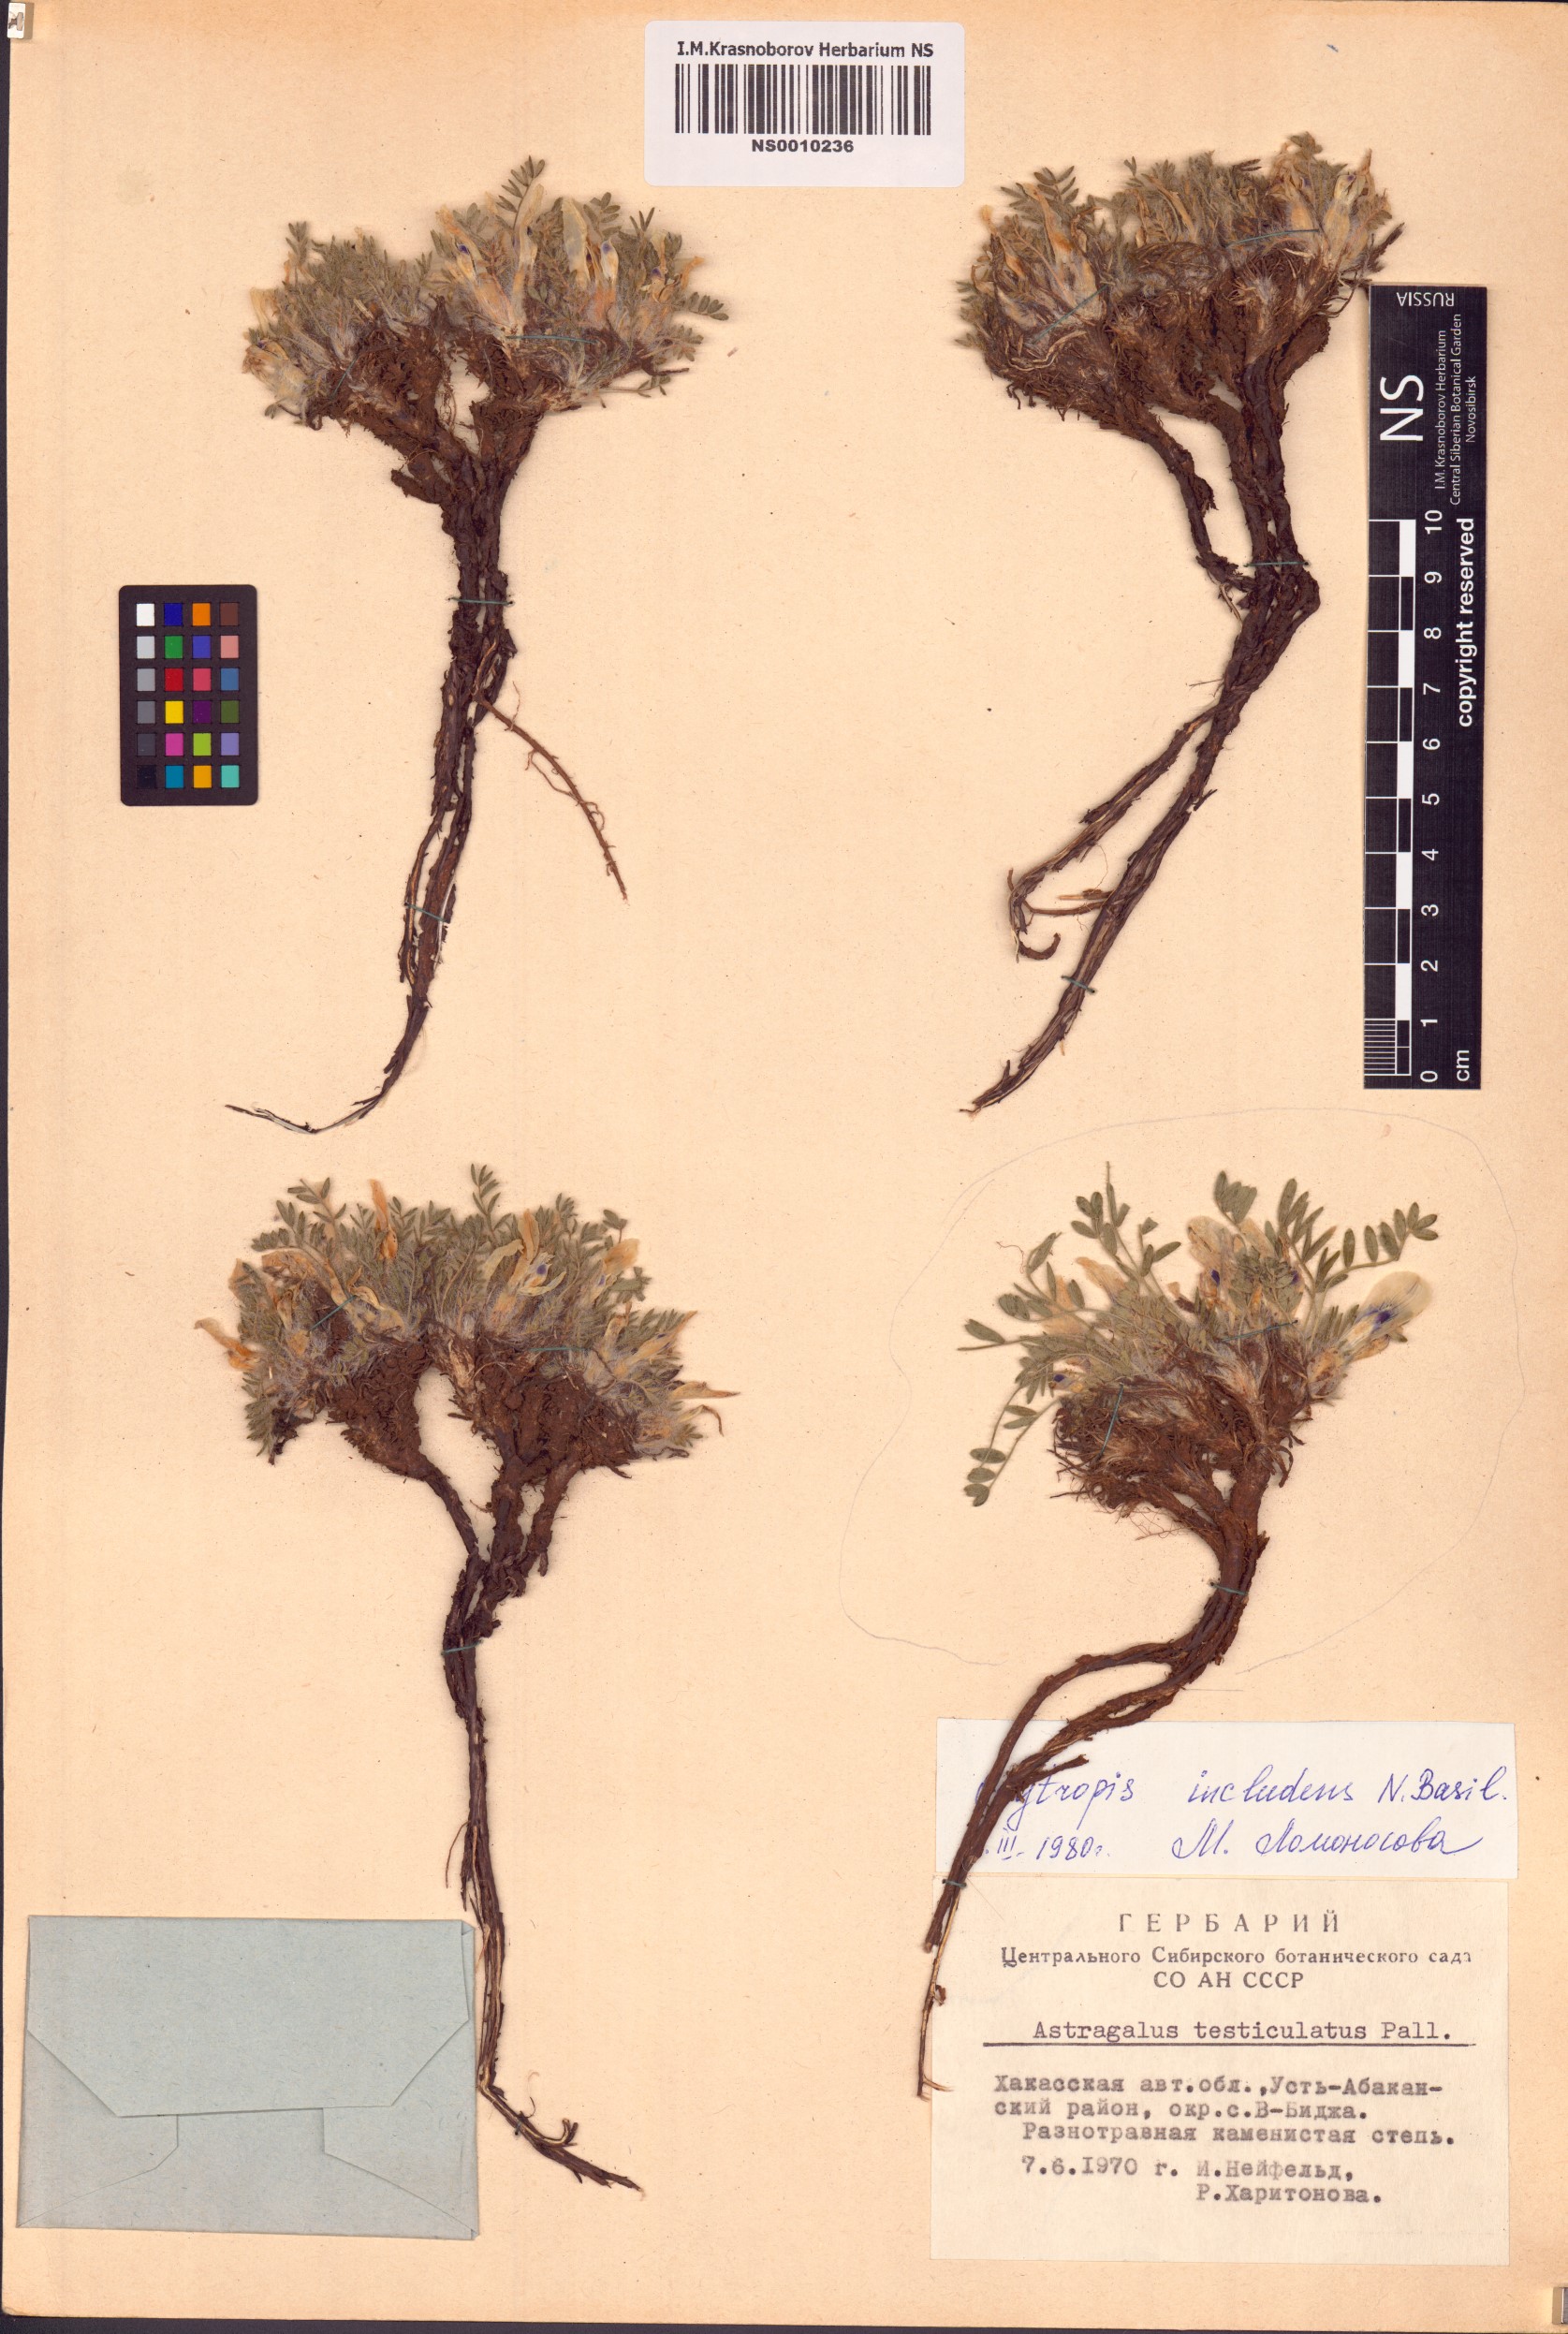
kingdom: Plantae
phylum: Tracheophyta
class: Magnoliopsida
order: Fabales
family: Fabaceae
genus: Oxytropis
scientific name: Oxytropis includens
